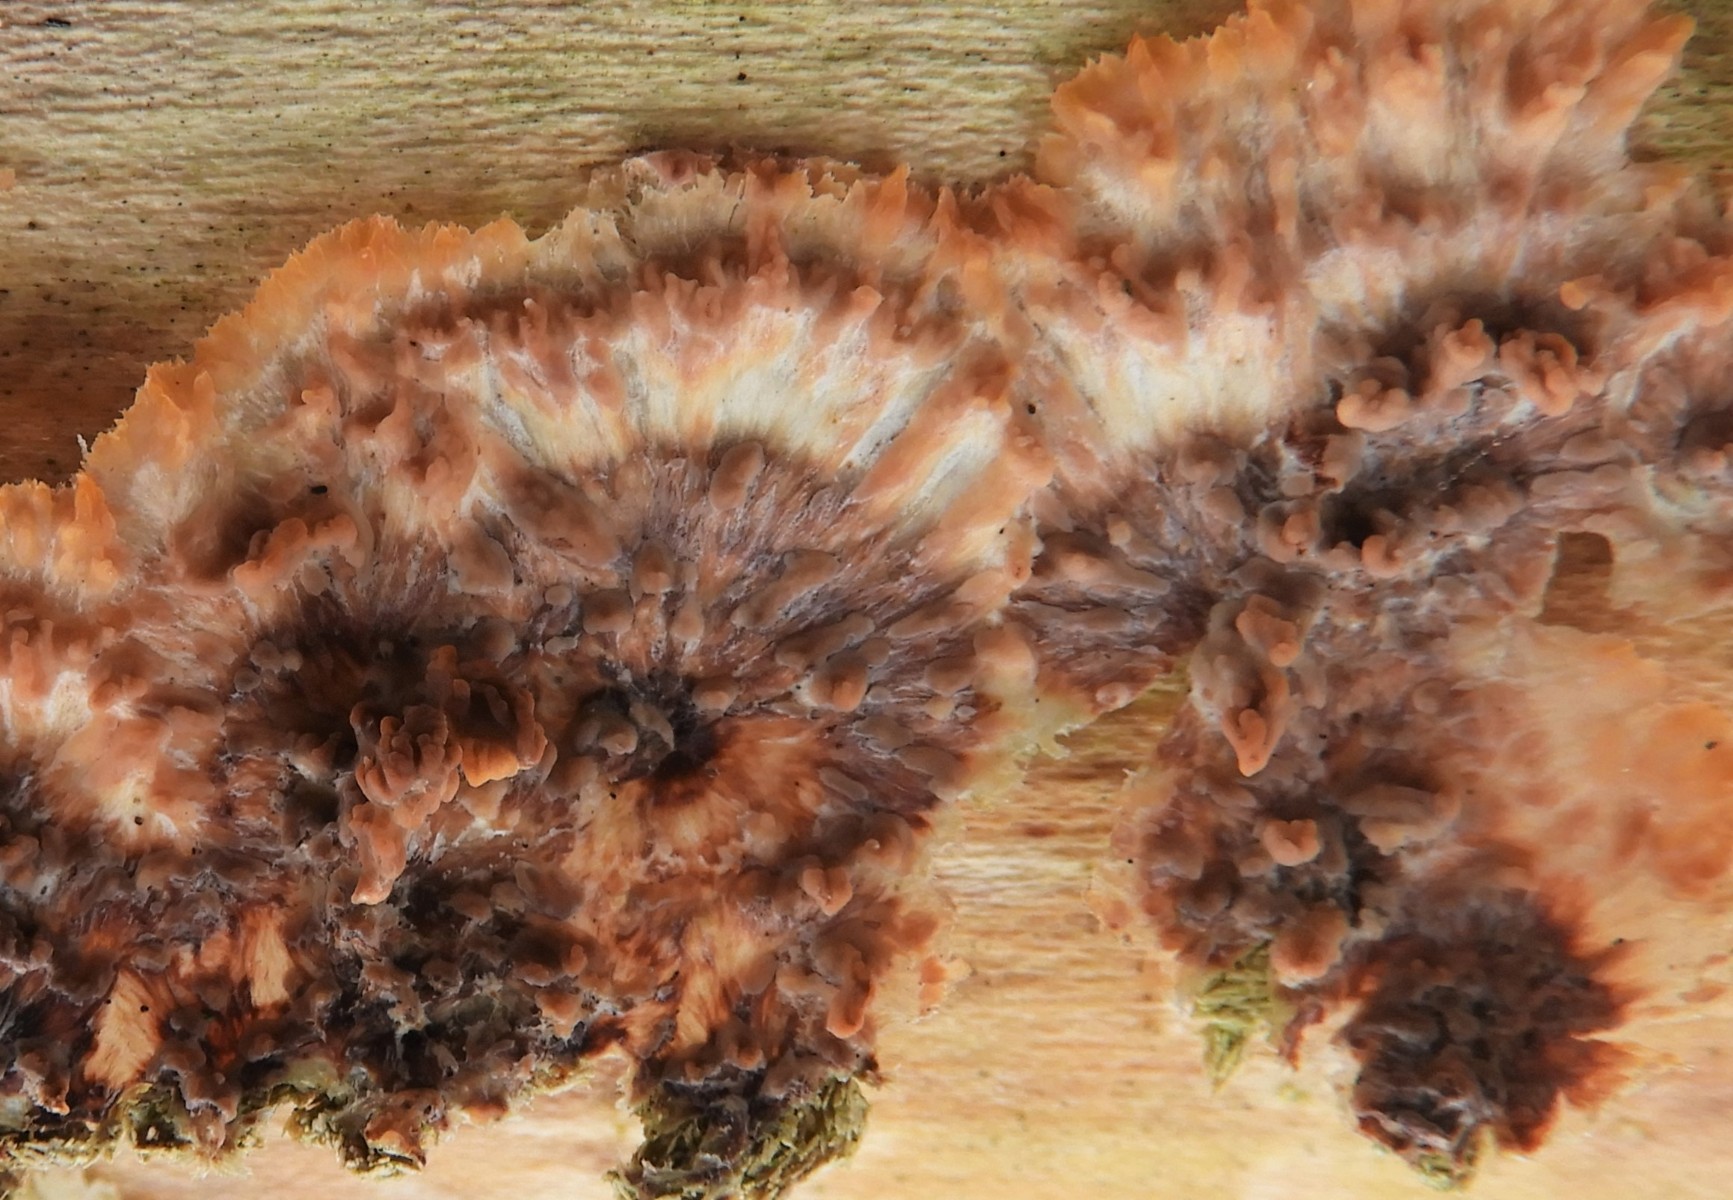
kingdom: Fungi
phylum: Basidiomycota
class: Agaricomycetes
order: Polyporales
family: Meruliaceae
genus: Phlebia
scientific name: Phlebia radiata
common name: stråle-åresvamp
